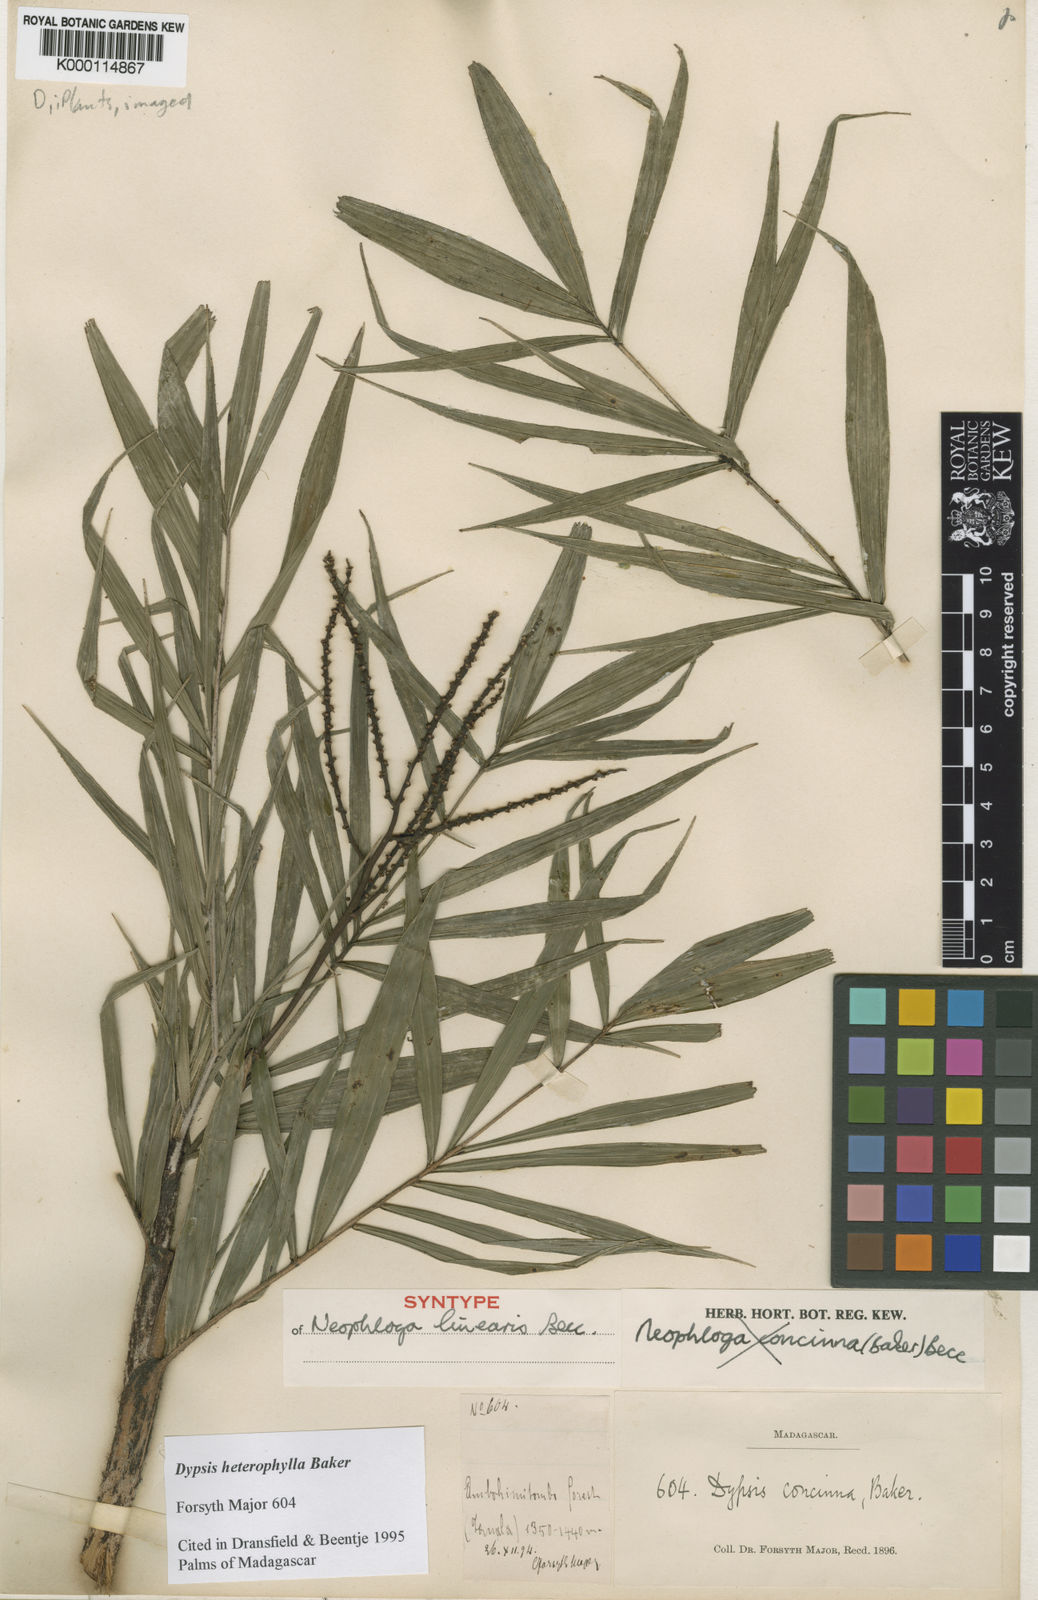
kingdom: Plantae
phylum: Tracheophyta
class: Liliopsida
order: Arecales
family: Arecaceae
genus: Dypsis
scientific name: Dypsis heterophylla
